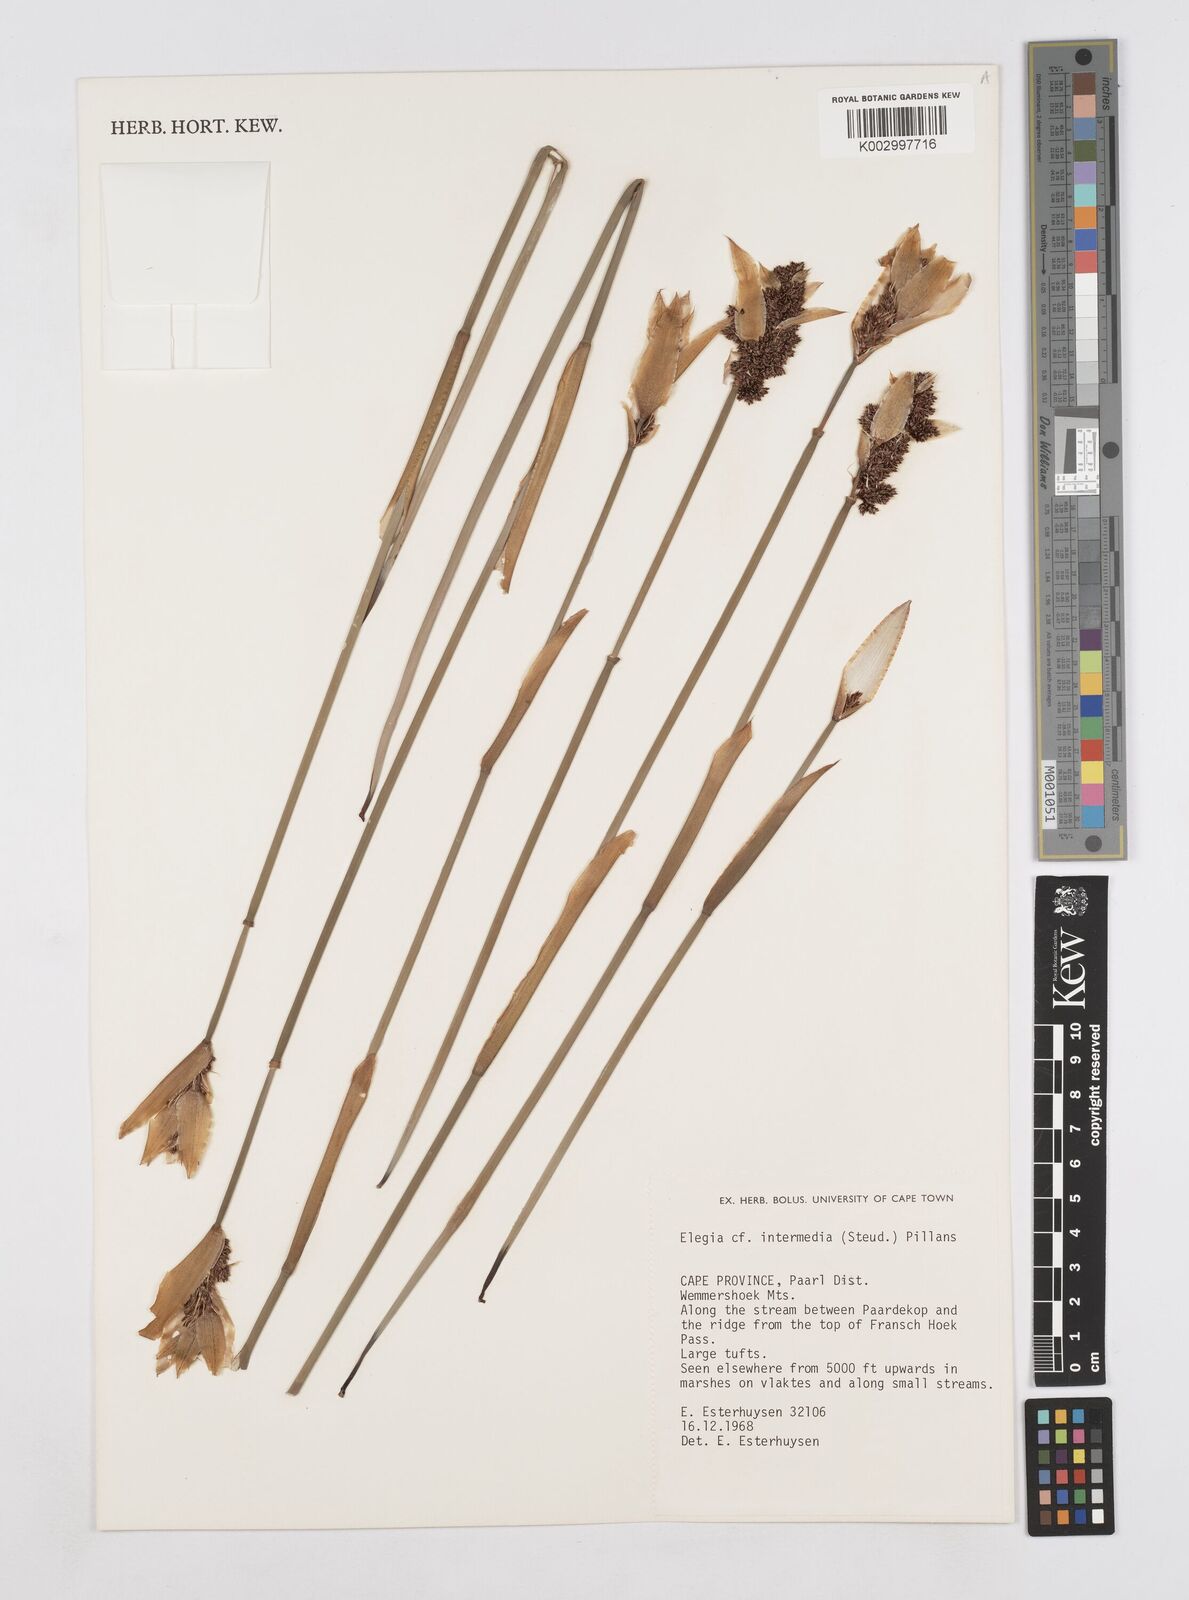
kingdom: Plantae
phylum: Tracheophyta
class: Liliopsida
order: Poales
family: Restionaceae
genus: Elegia
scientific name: Elegia intermedia
